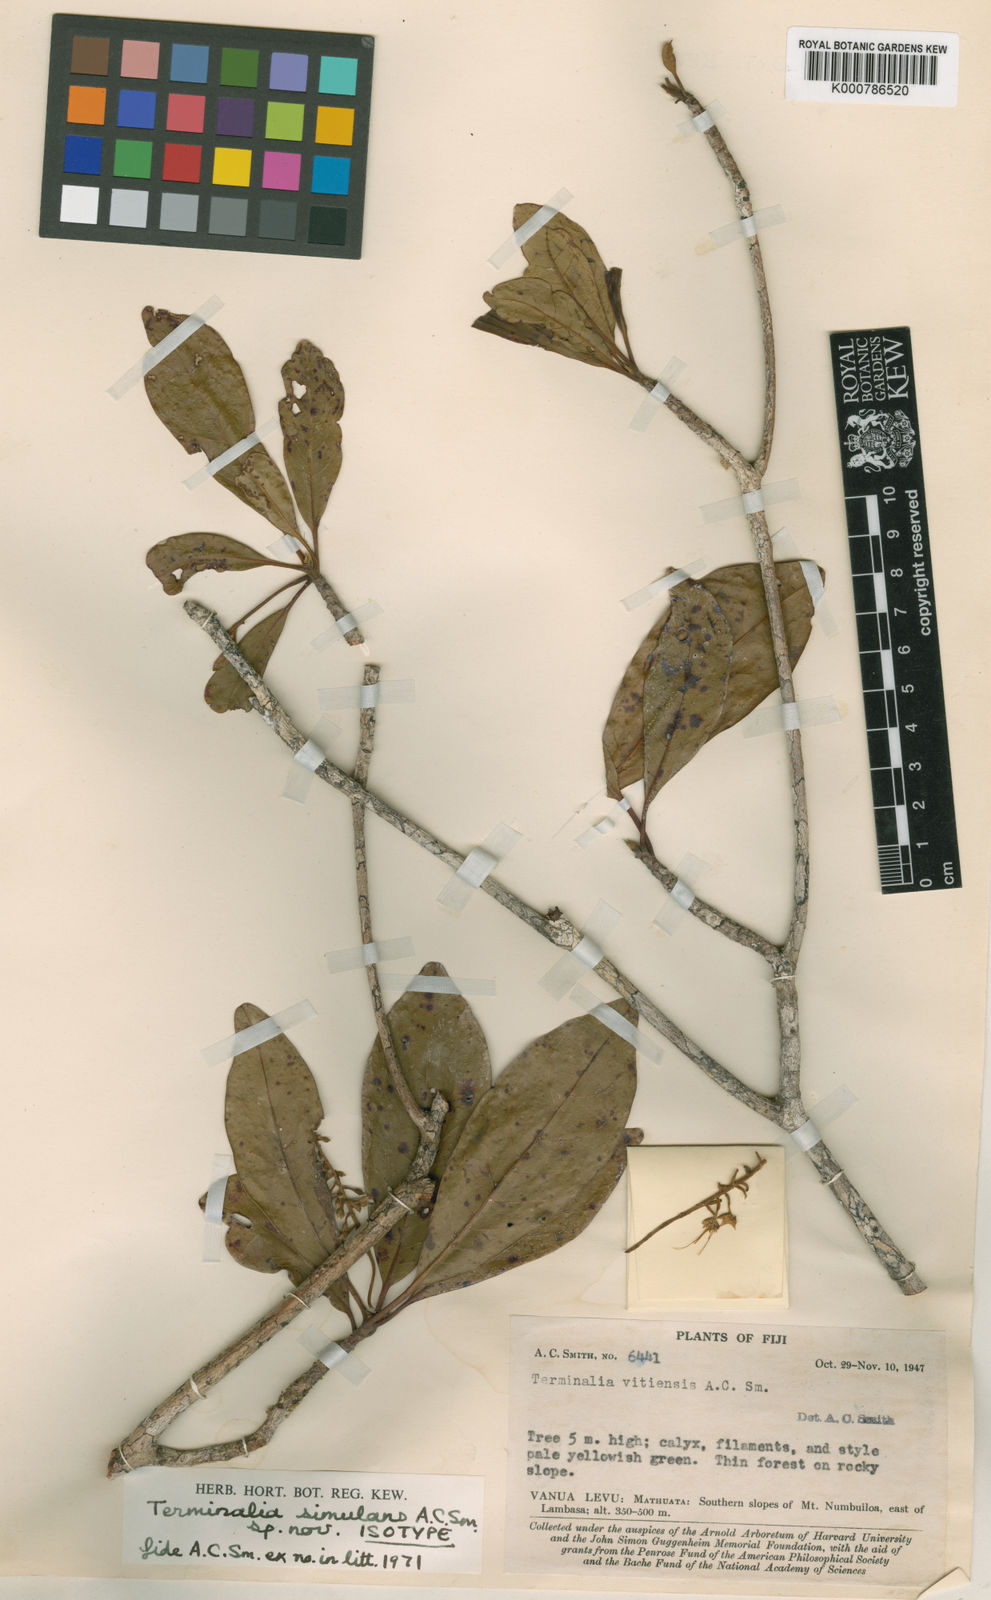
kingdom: Plantae
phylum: Tracheophyta
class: Magnoliopsida
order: Myrtales
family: Combretaceae
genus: Terminalia
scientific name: Terminalia simulans
